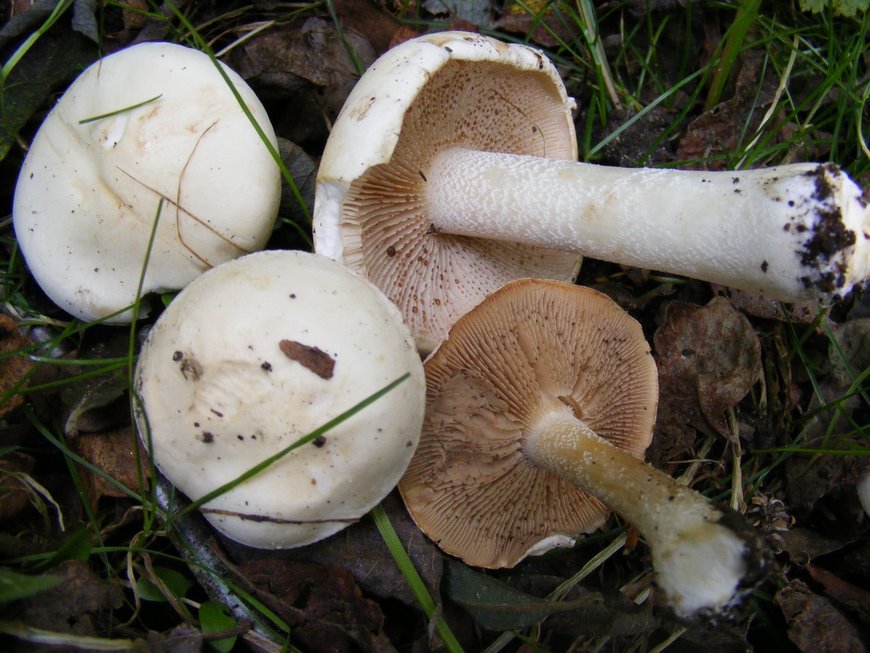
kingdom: Fungi
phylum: Basidiomycota
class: Agaricomycetes
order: Agaricales
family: Hymenogastraceae
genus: Hebeloma
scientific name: Hebeloma eburneum
